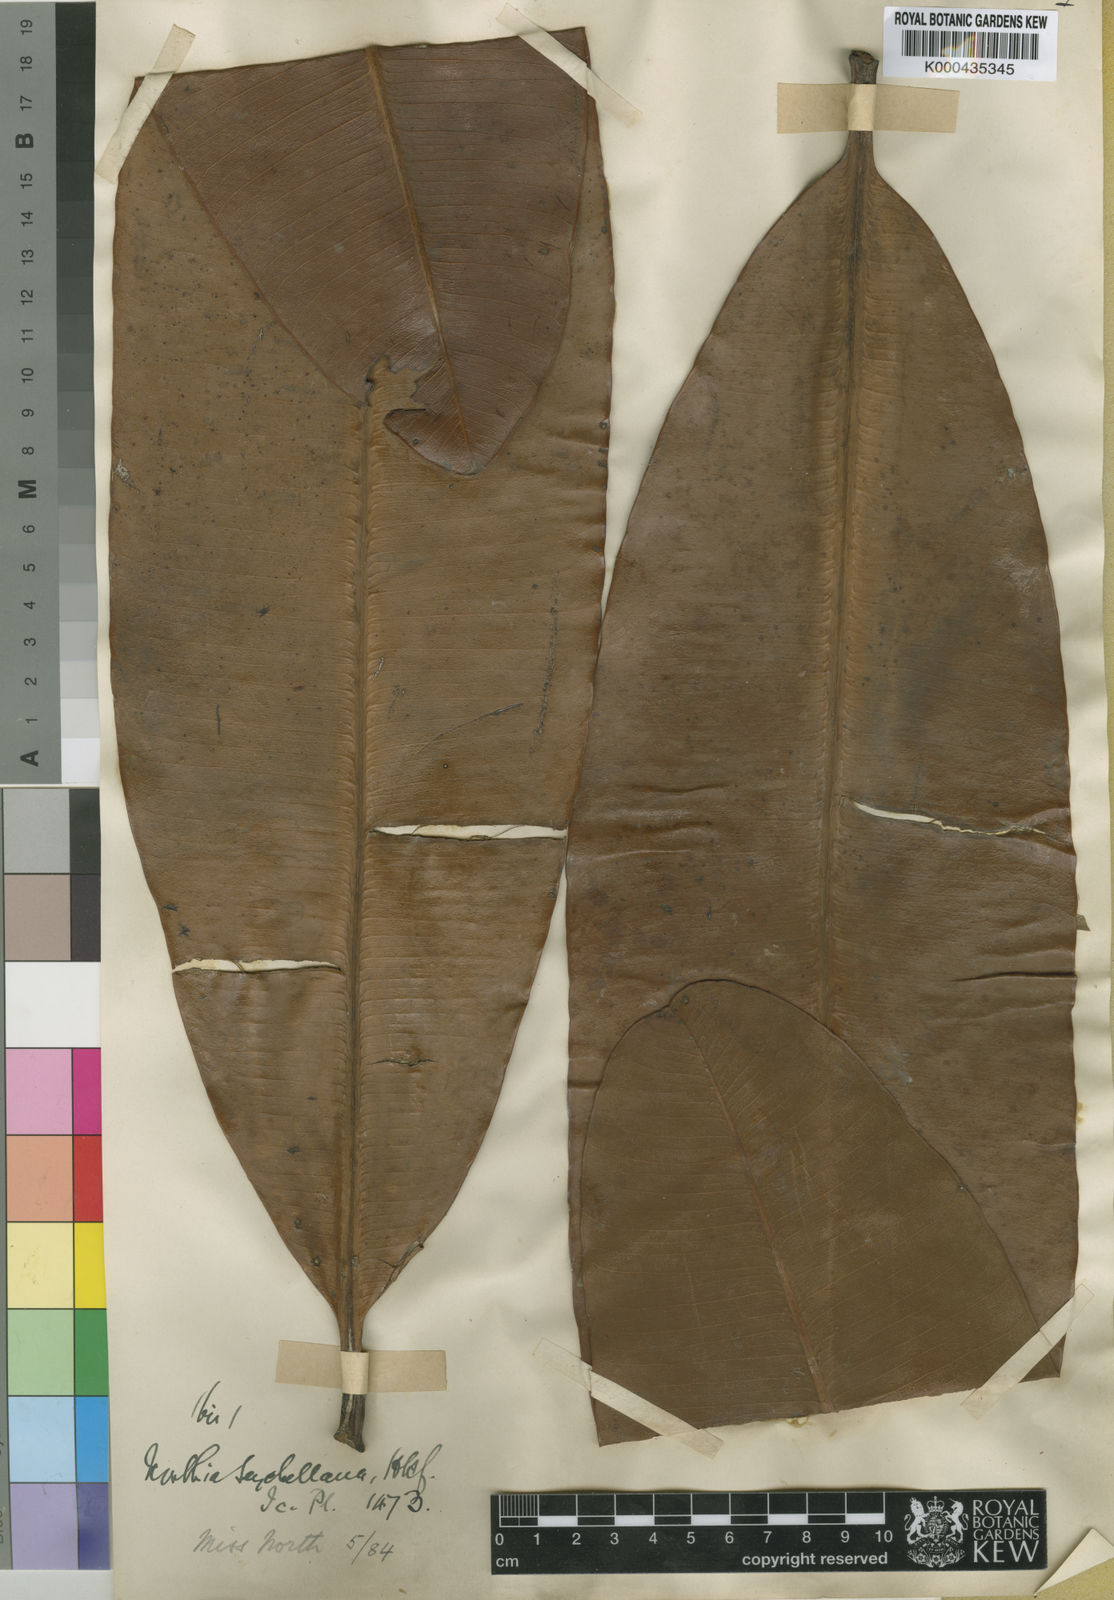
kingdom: Plantae
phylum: Tracheophyta
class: Magnoliopsida
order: Ericales
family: Sapotaceae
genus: Northia
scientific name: Northia seychellana
